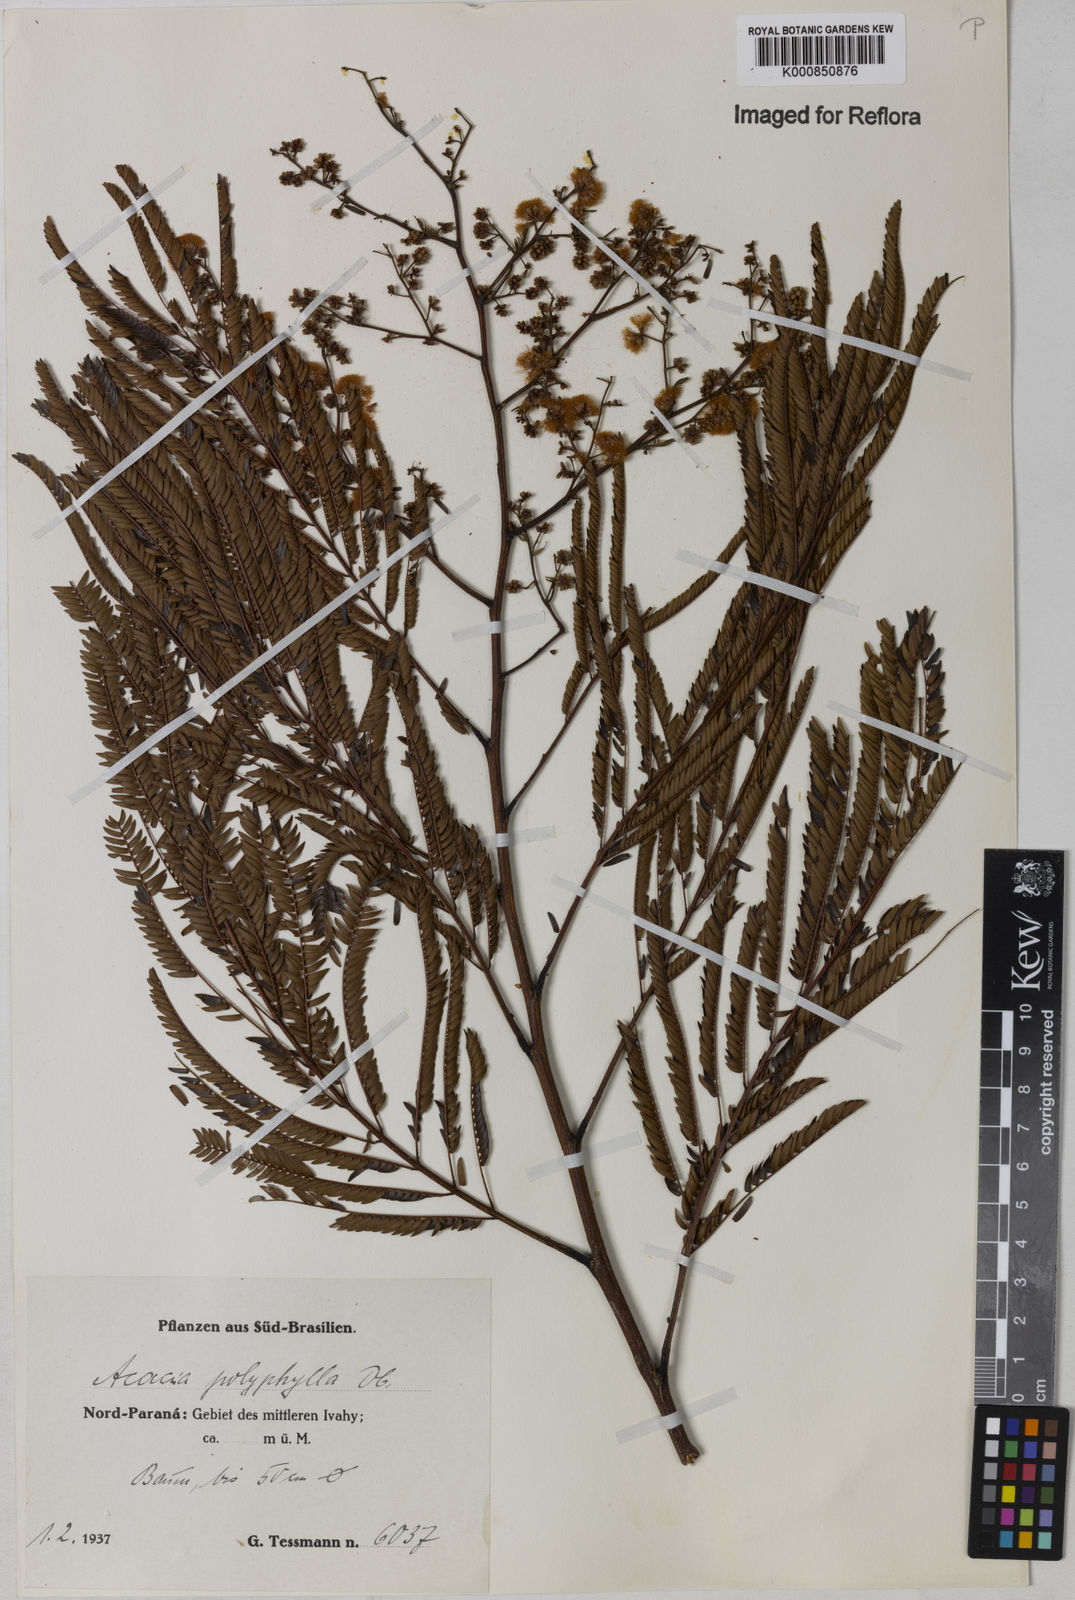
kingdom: Plantae
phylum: Tracheophyta
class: Magnoliopsida
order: Fabales
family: Fabaceae
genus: Senegalia
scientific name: Senegalia polyphylla
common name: White-tamarind
